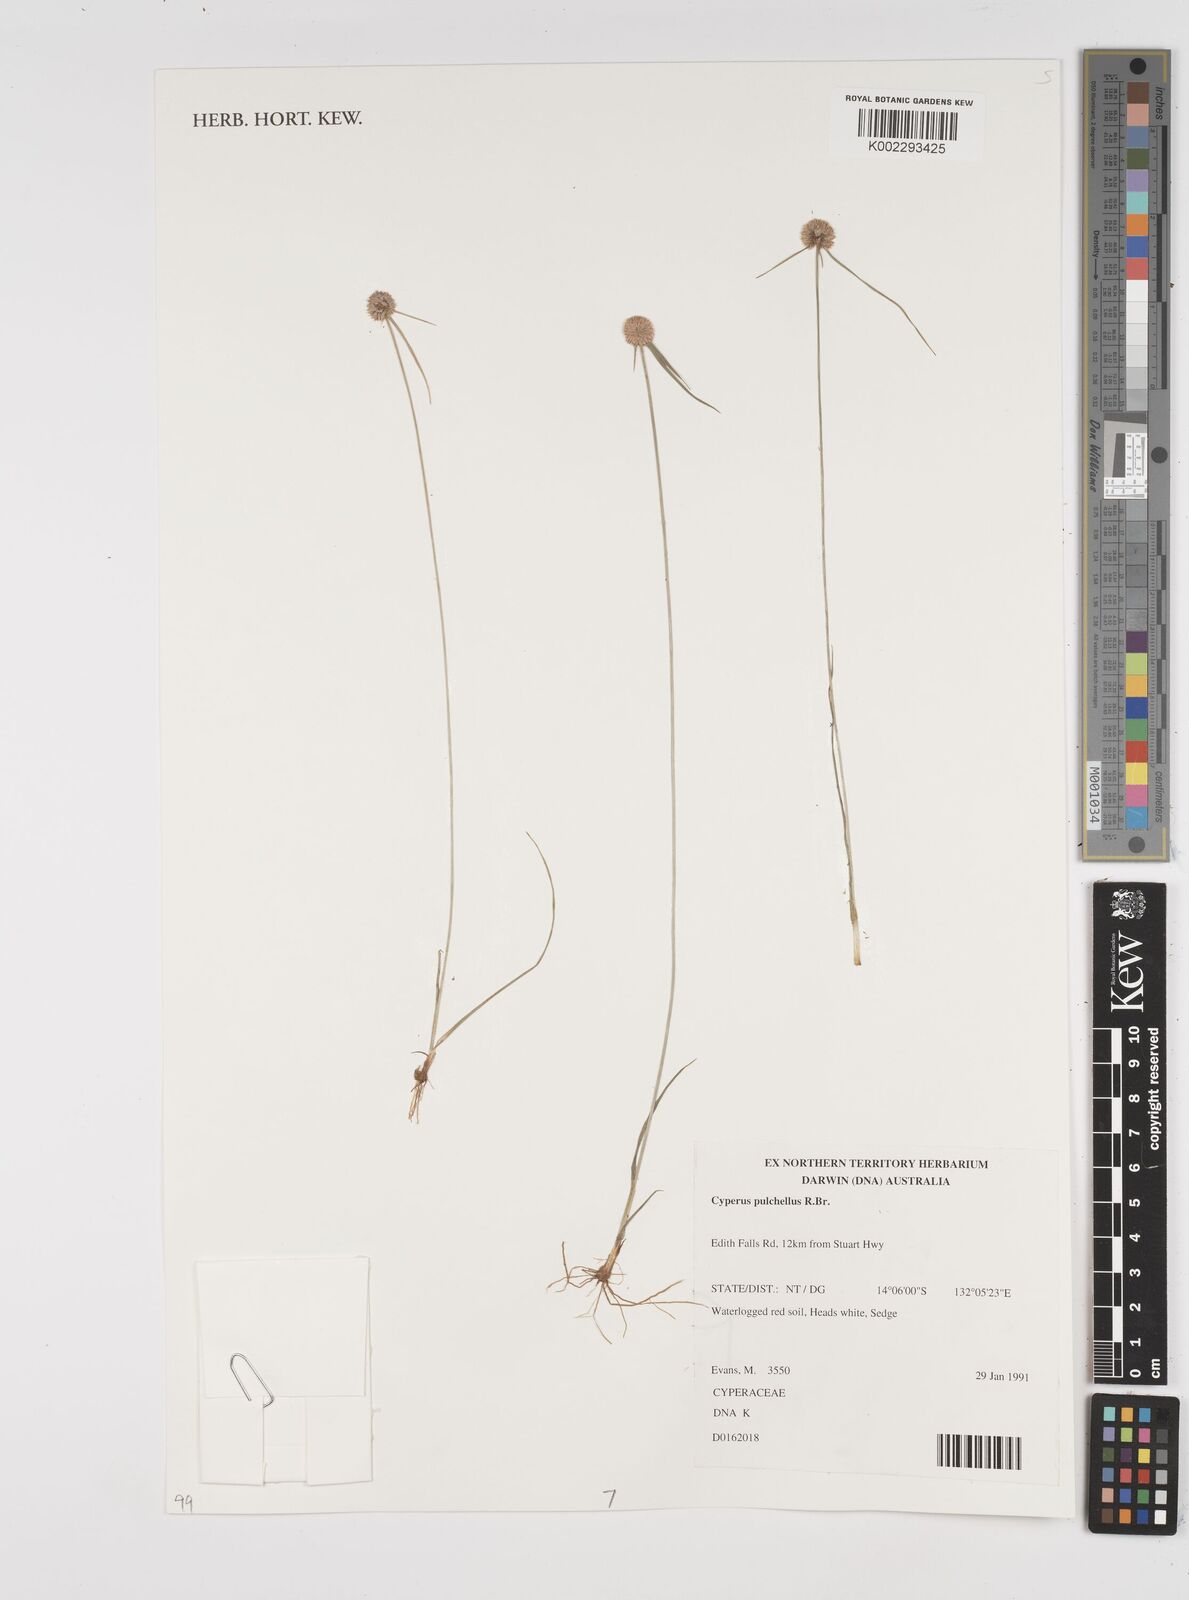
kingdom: Plantae
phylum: Tracheophyta
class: Liliopsida
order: Poales
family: Cyperaceae
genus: Cyperus
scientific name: Cyperus pulchellus
